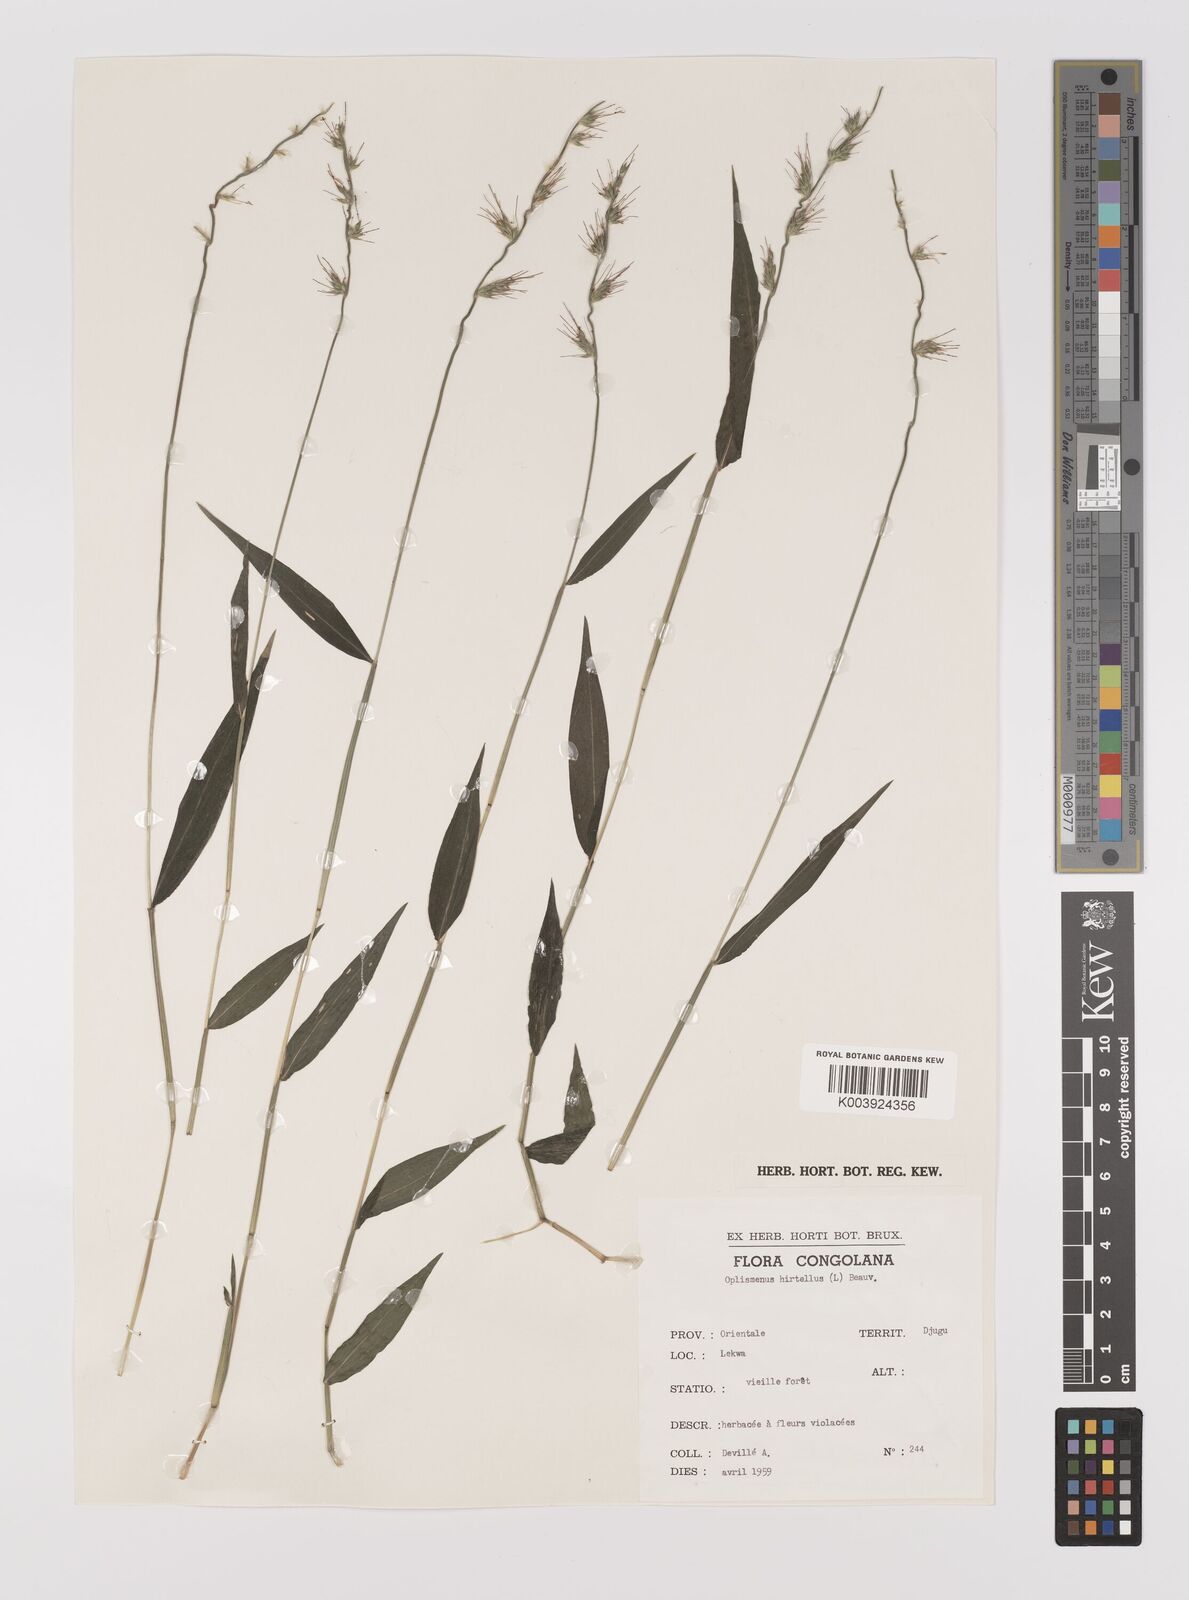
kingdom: Plantae
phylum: Tracheophyta
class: Liliopsida
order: Poales
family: Poaceae
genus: Oplismenus
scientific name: Oplismenus hirtellus
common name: Basketgrass
